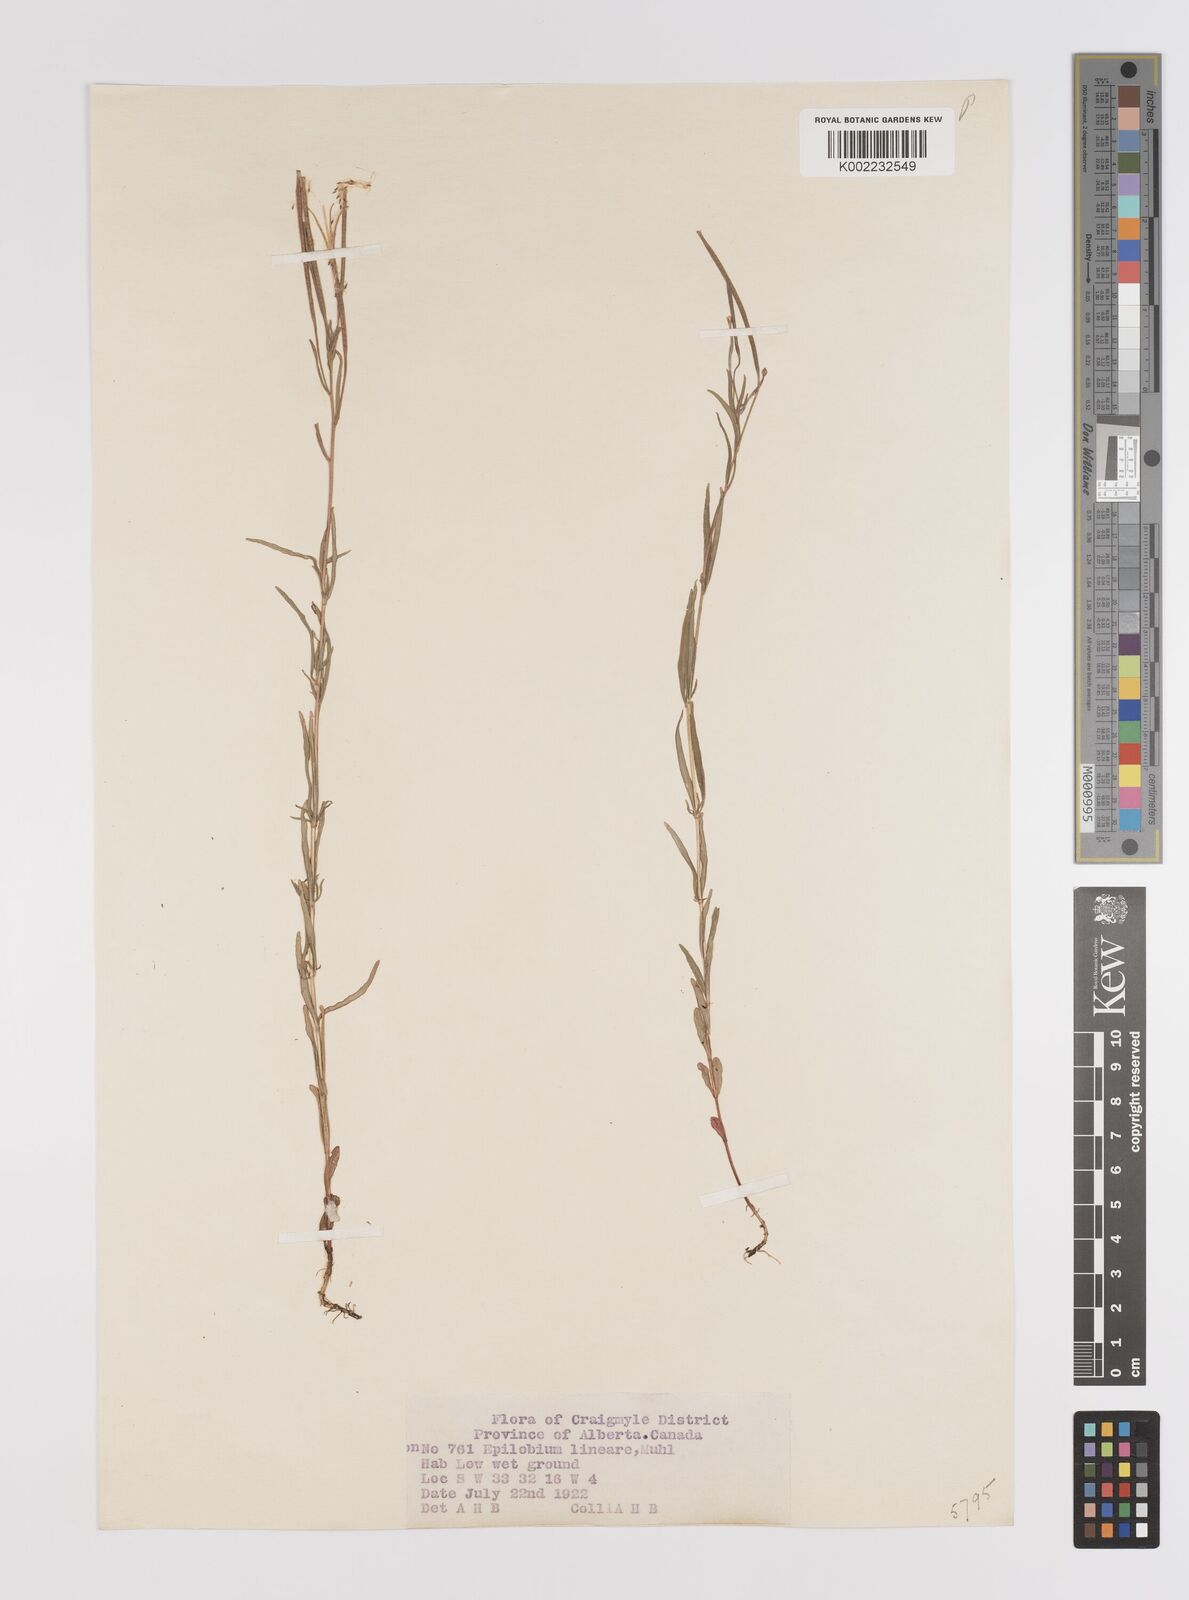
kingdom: Plantae
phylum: Tracheophyta
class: Magnoliopsida
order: Myrtales
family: Onagraceae
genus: Epilobium
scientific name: Epilobium palustre
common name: Marsh willowherb
